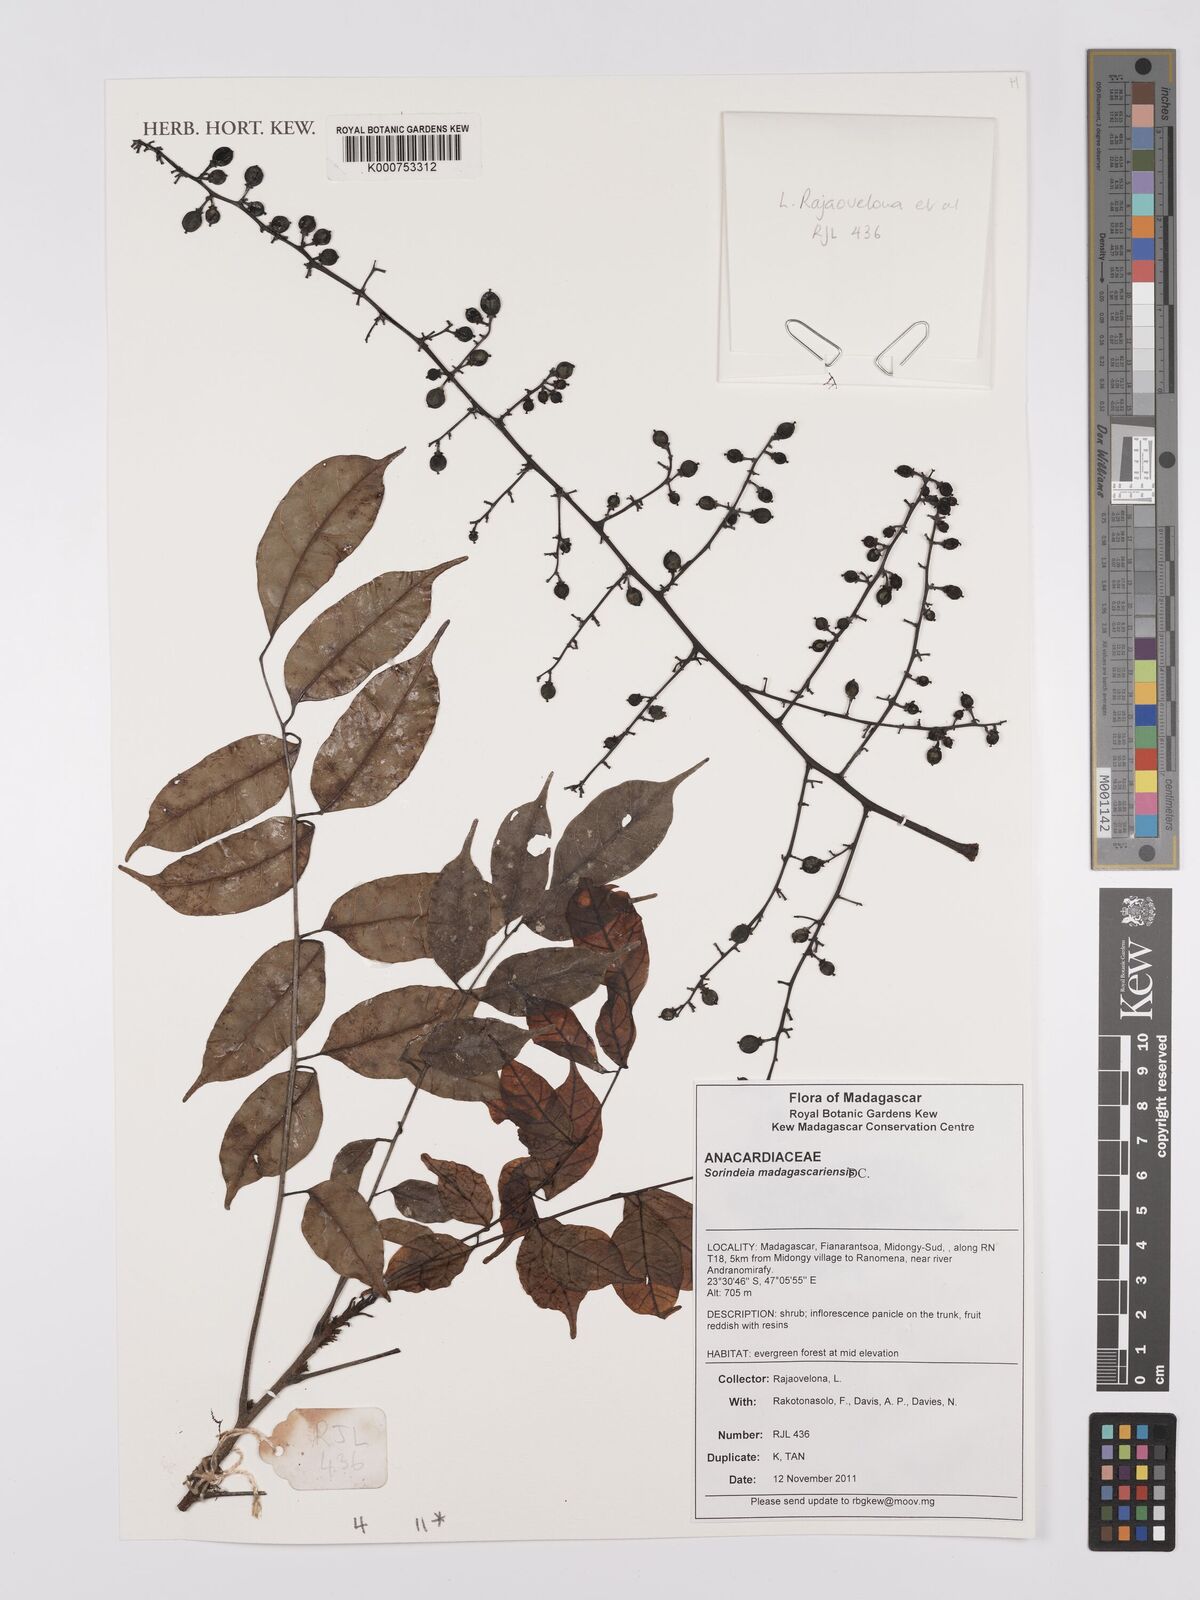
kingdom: Plantae
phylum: Tracheophyta
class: Magnoliopsida
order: Sapindales
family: Anacardiaceae
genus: Sorindeia
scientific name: Sorindeia madagascariensis
